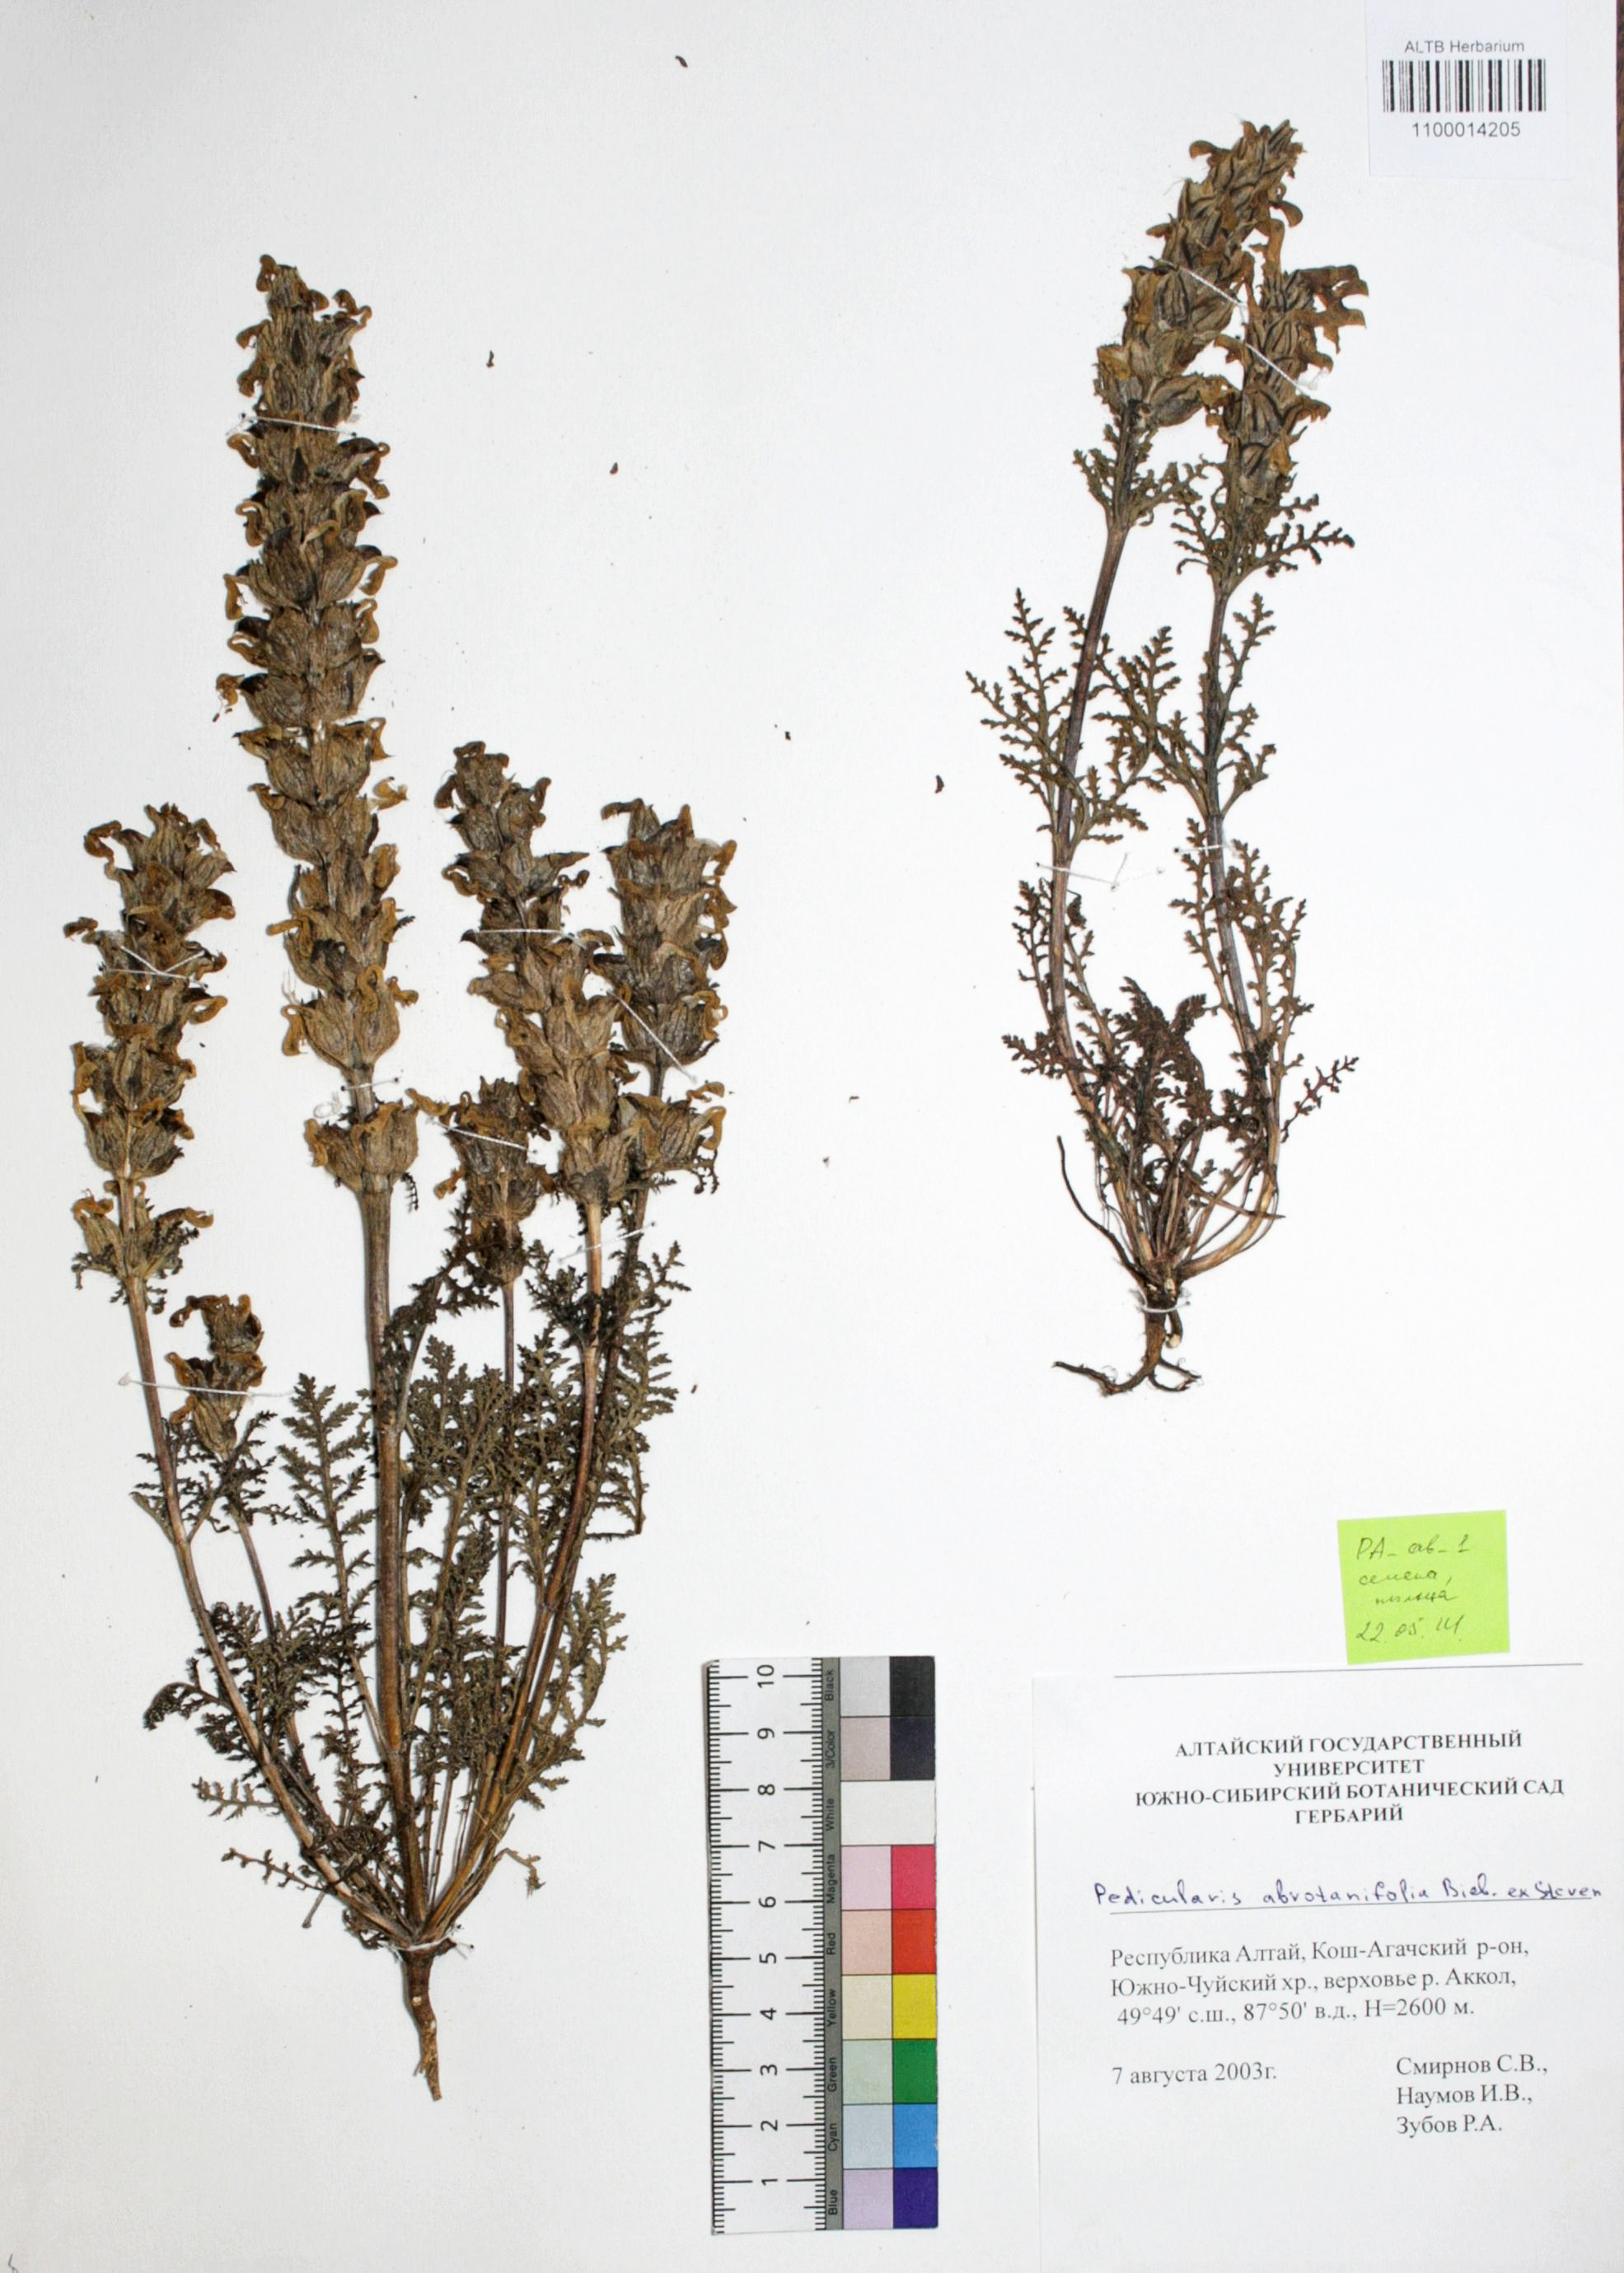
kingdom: Plantae
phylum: Tracheophyta
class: Magnoliopsida
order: Lamiales
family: Orobanchaceae
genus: Pedicularis
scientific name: Pedicularis abrotanifolia
